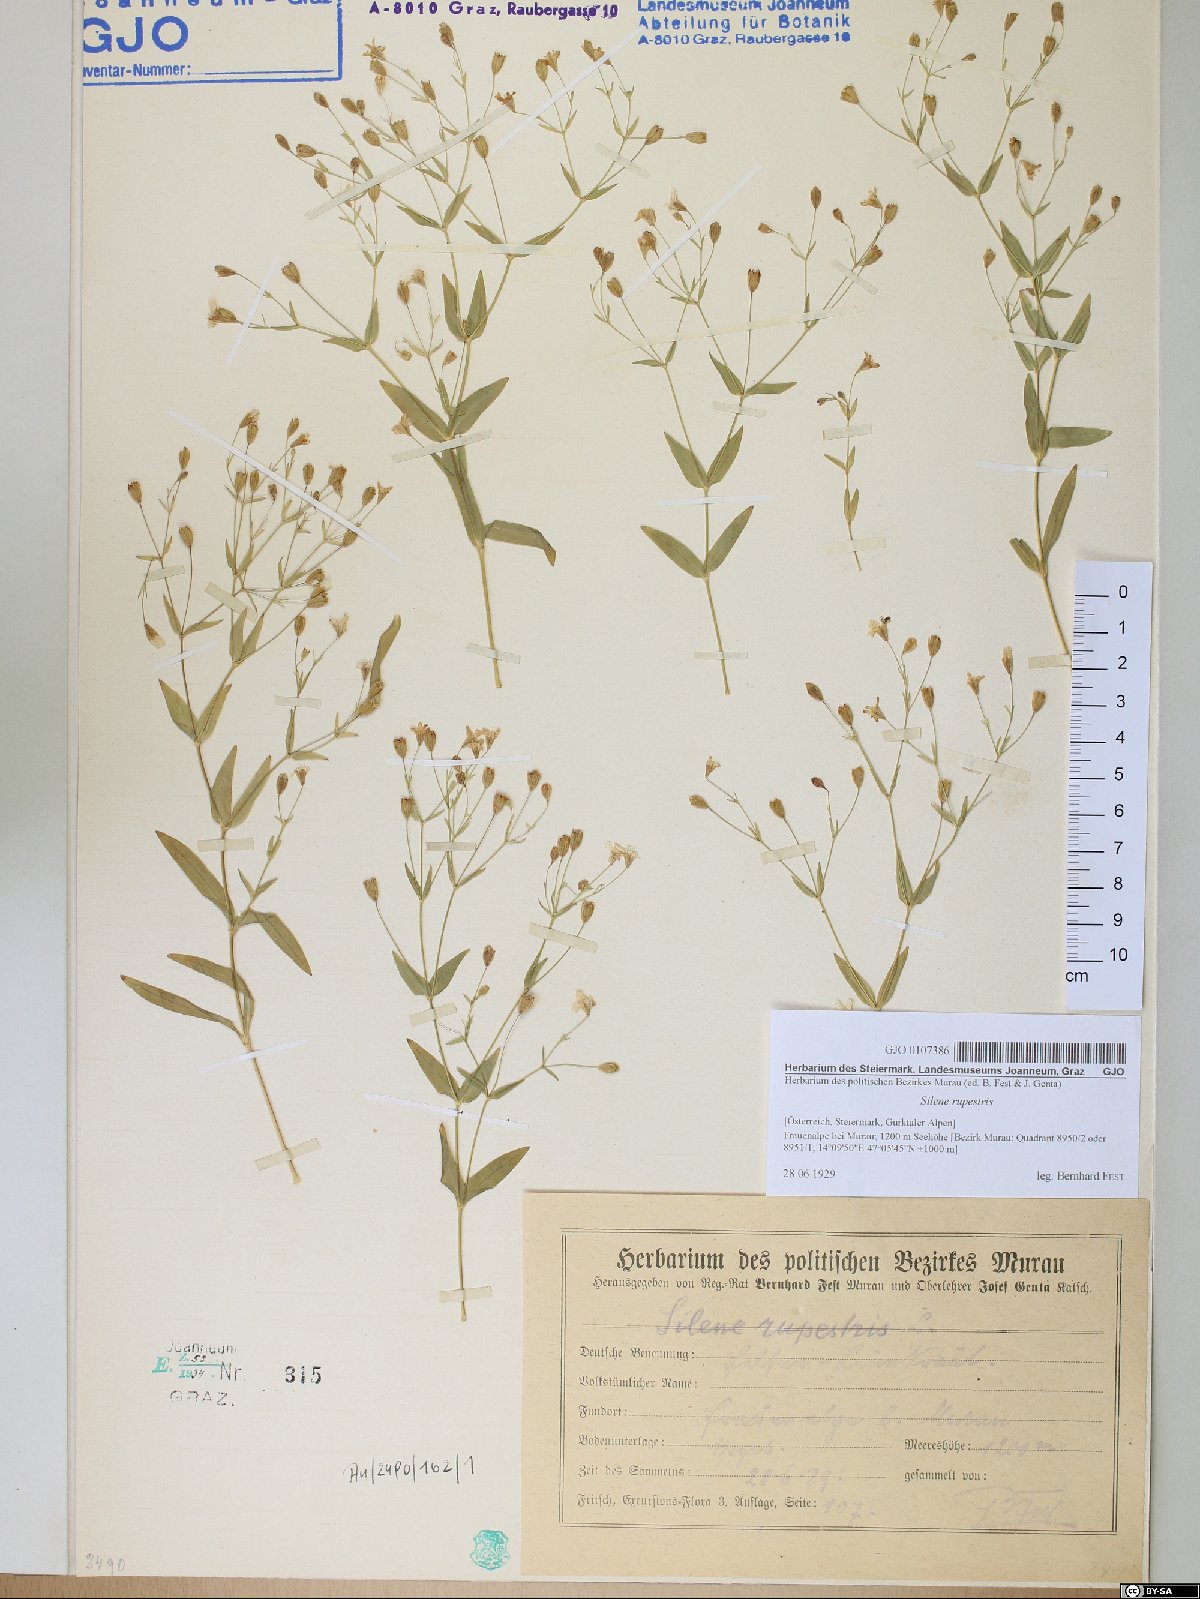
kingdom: Plantae
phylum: Tracheophyta
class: Magnoliopsida
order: Caryophyllales
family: Caryophyllaceae
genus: Atocion
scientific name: Atocion rupestre
